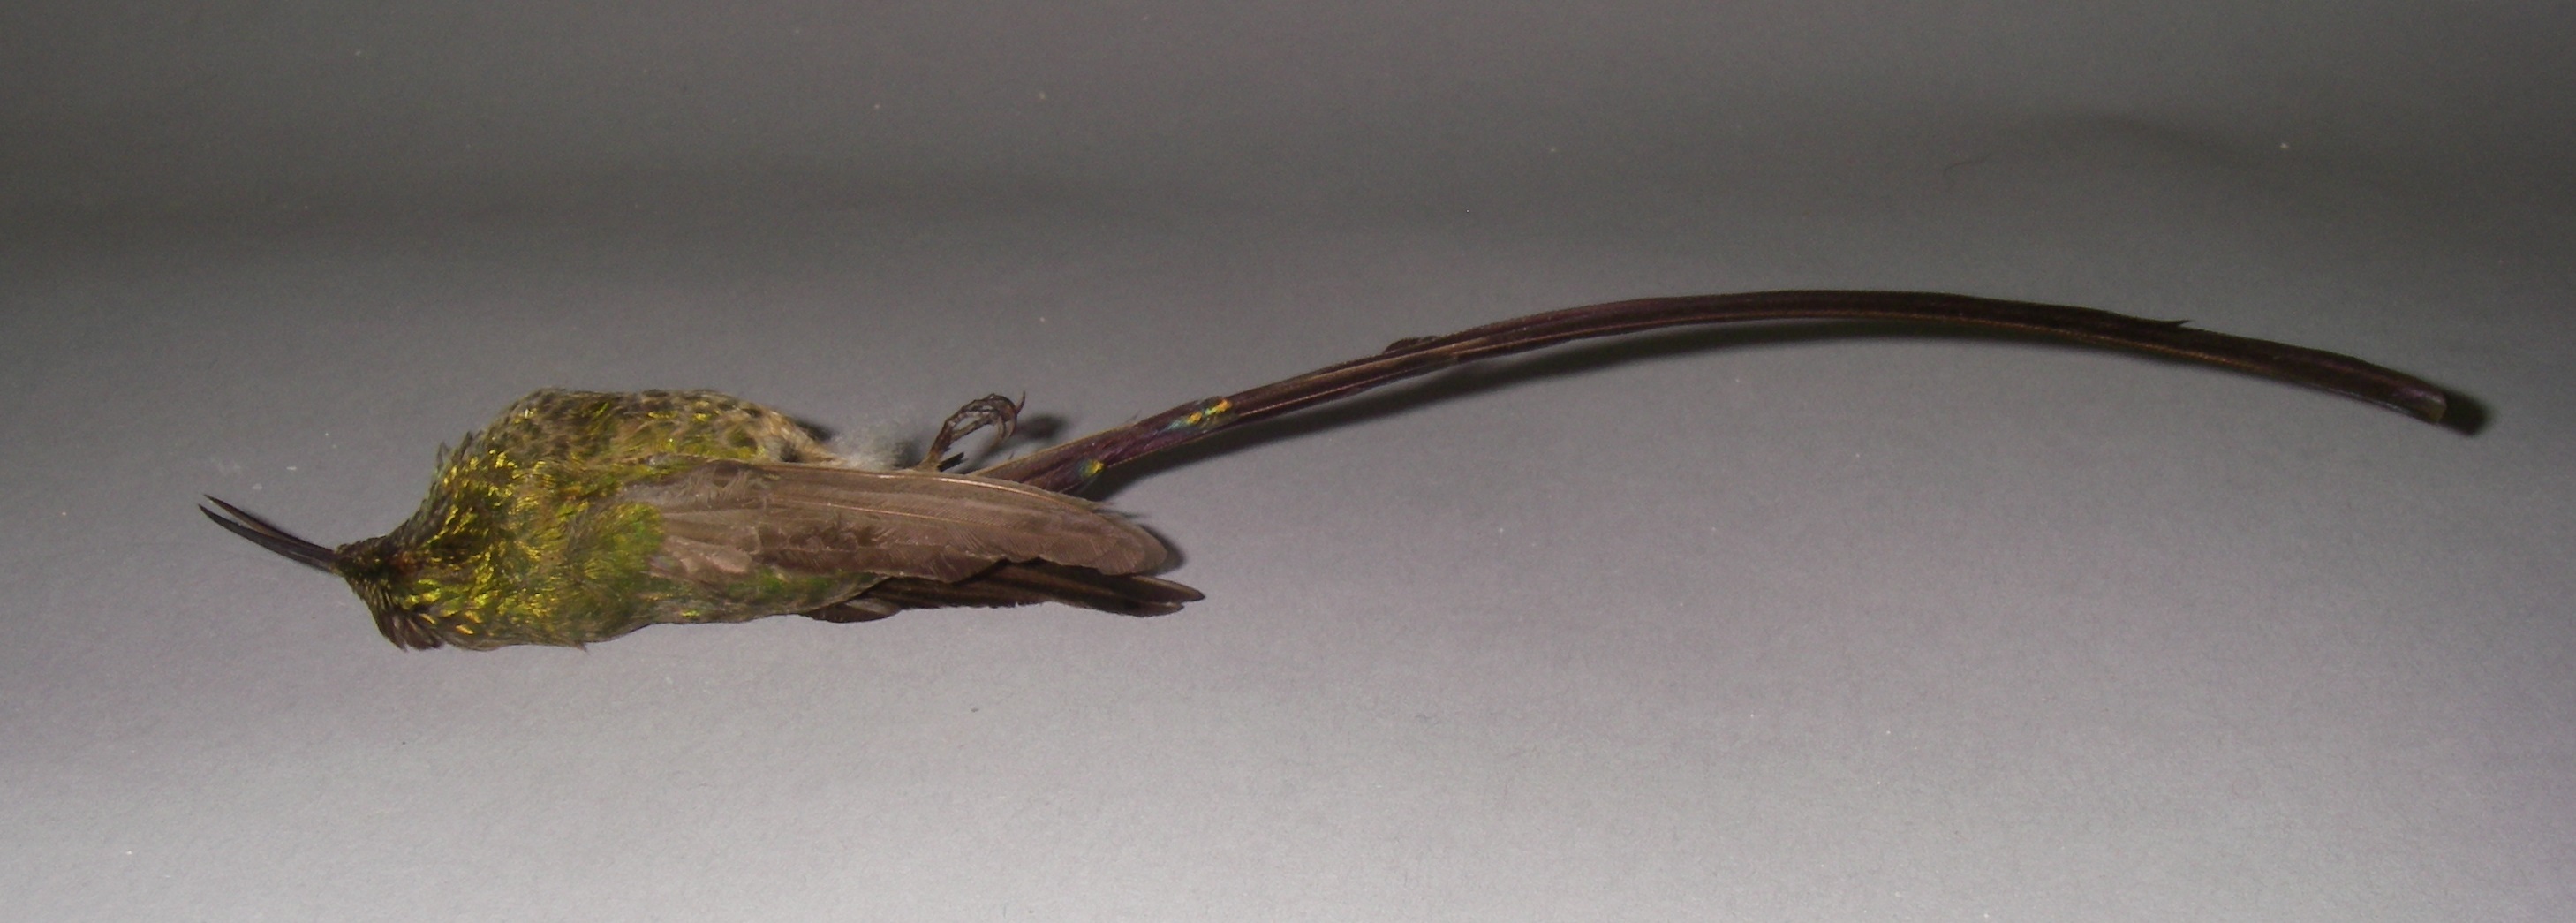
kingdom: Animalia
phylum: Chordata
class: Aves
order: Apodiformes
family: Trochilidae
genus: Lesbia
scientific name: Lesbia victoriae
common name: Black-tailed trainbearer
